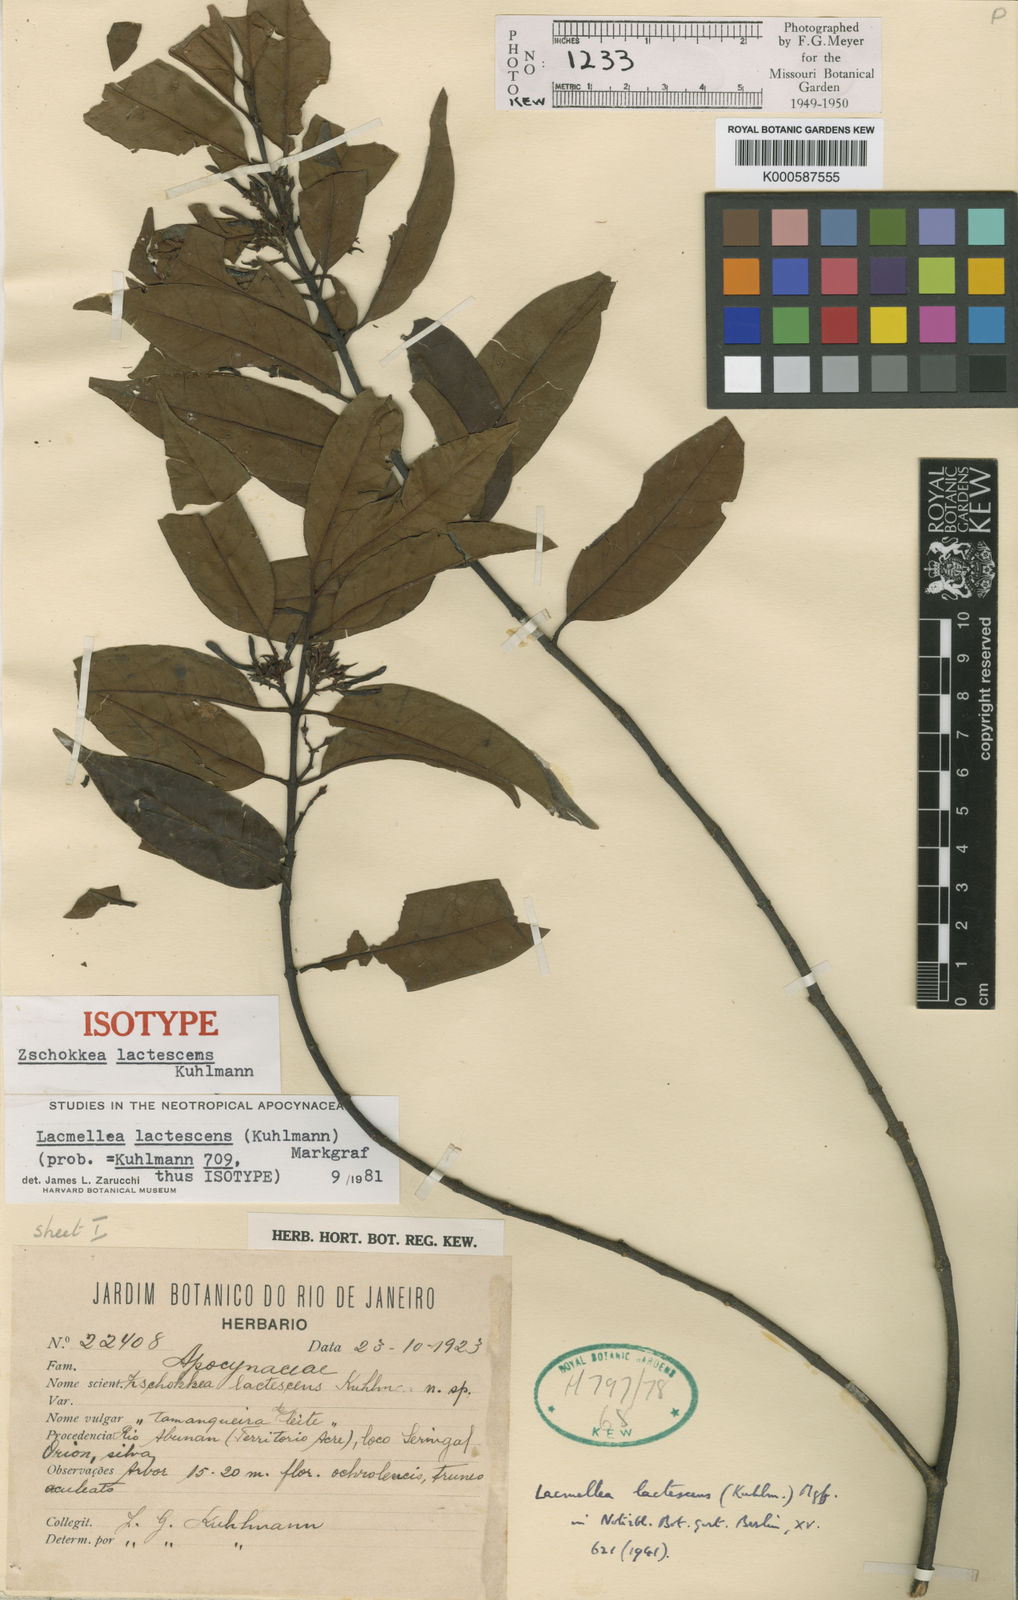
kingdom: Plantae
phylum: Tracheophyta
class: Magnoliopsida
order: Gentianales
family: Apocynaceae
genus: Lacmellea
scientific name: Lacmellea edulis
